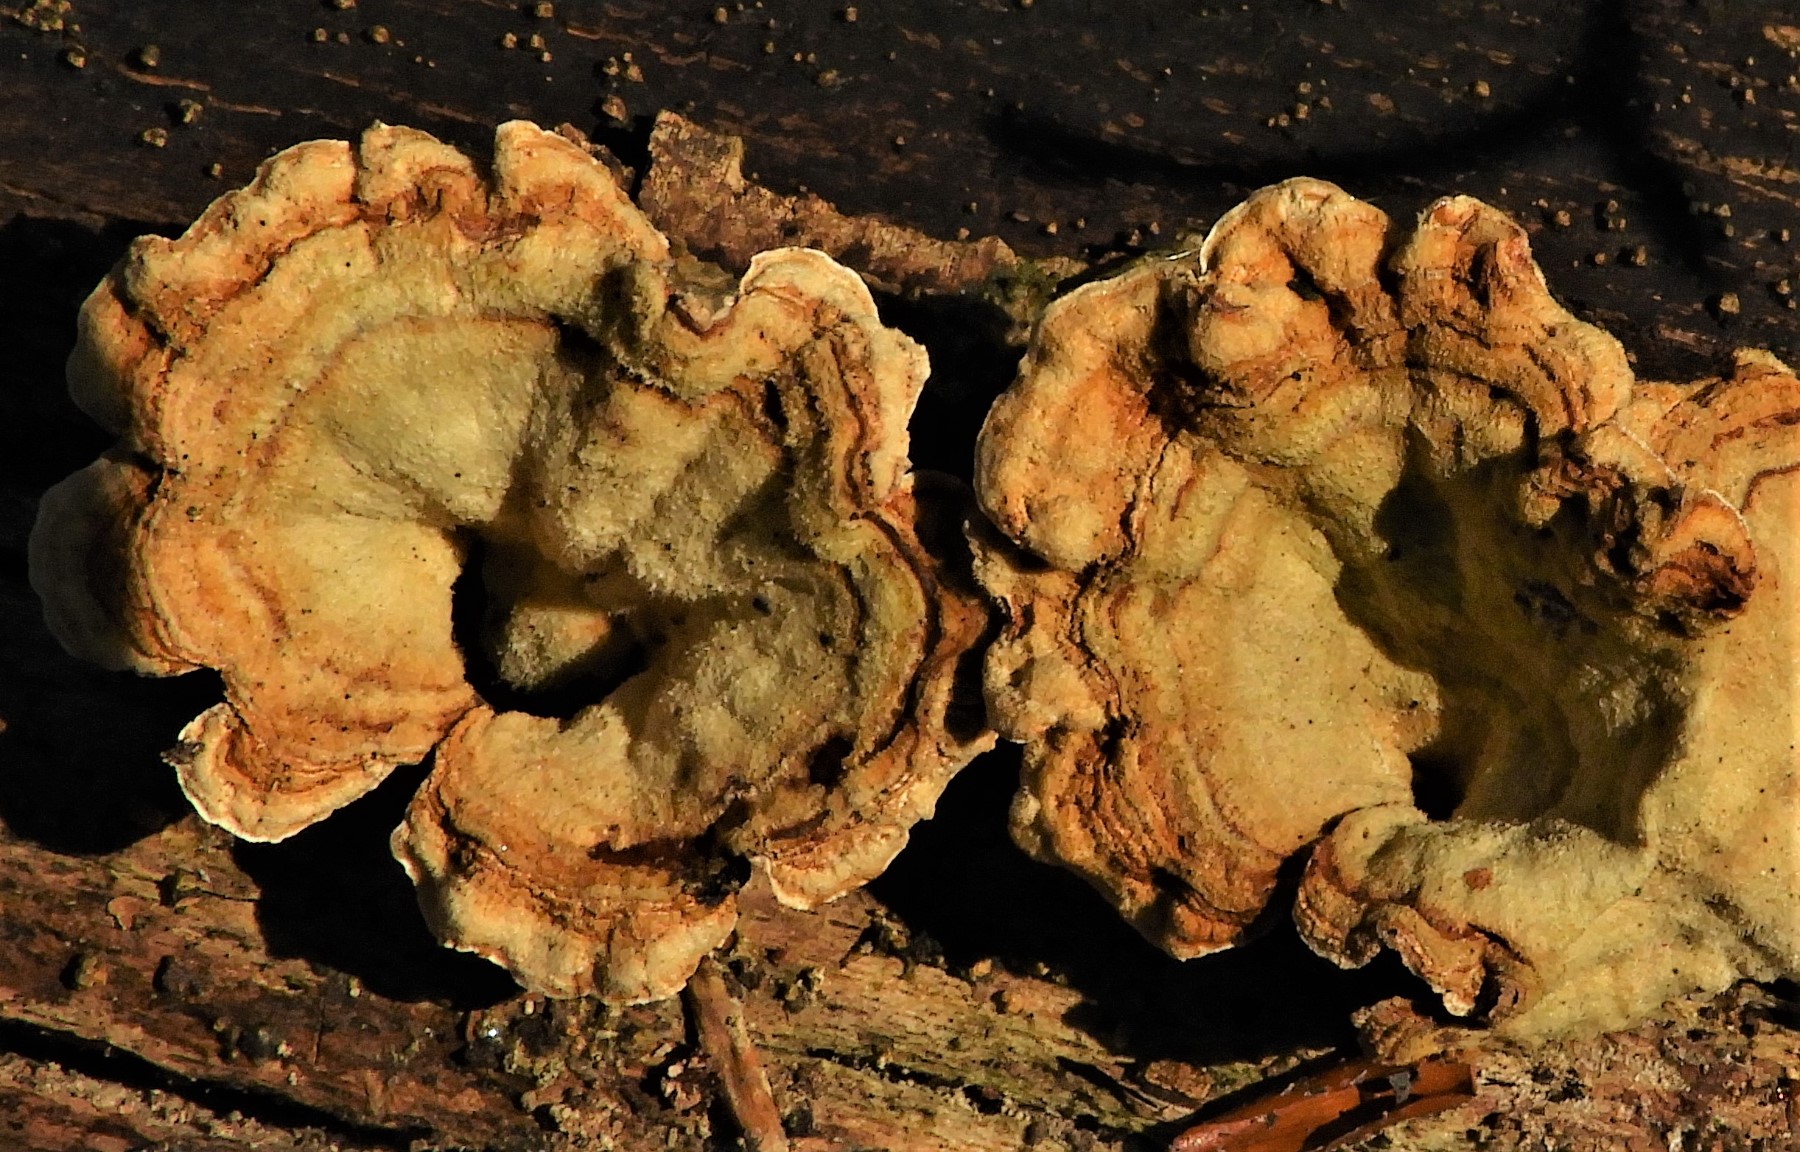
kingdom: Fungi
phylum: Basidiomycota
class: Agaricomycetes
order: Russulales
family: Stereaceae
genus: Stereum
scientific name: Stereum hirsutum
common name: håret lædersvamp
